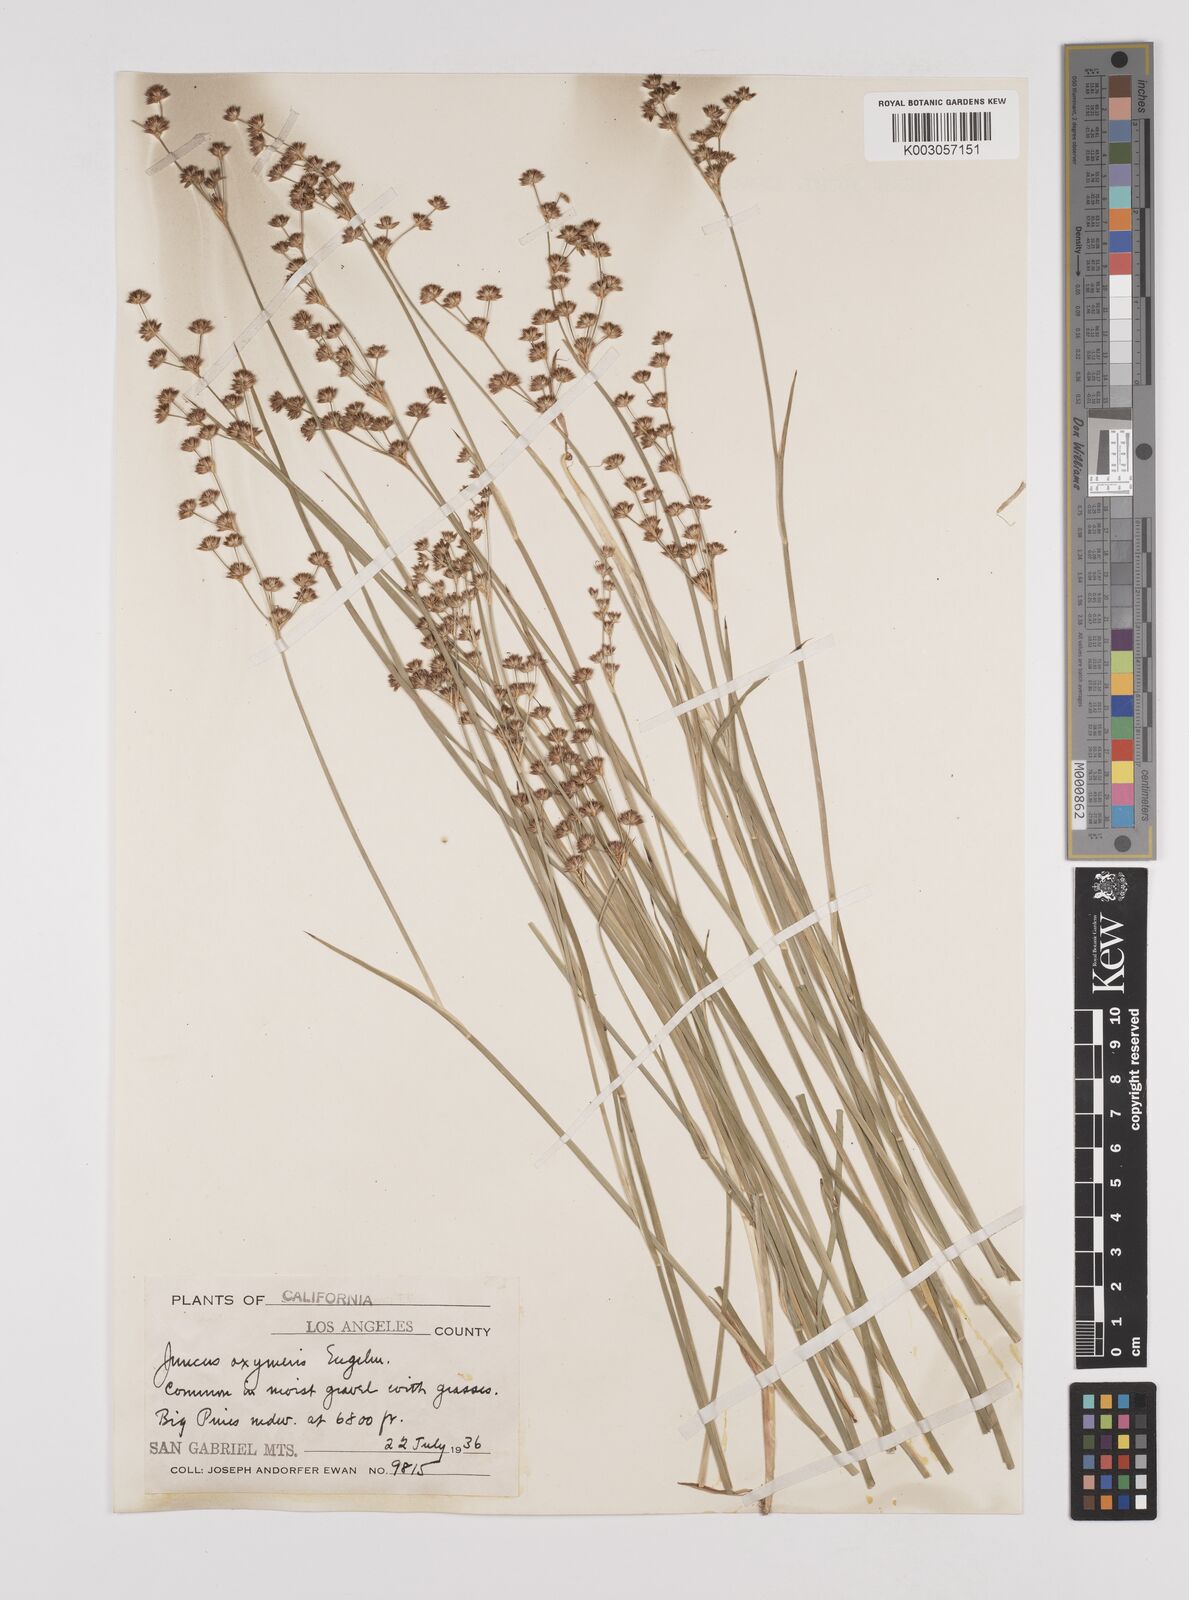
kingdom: Plantae
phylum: Tracheophyta
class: Liliopsida
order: Poales
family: Juncaceae
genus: Juncus
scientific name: Juncus oxymeris
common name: Pointed rush
